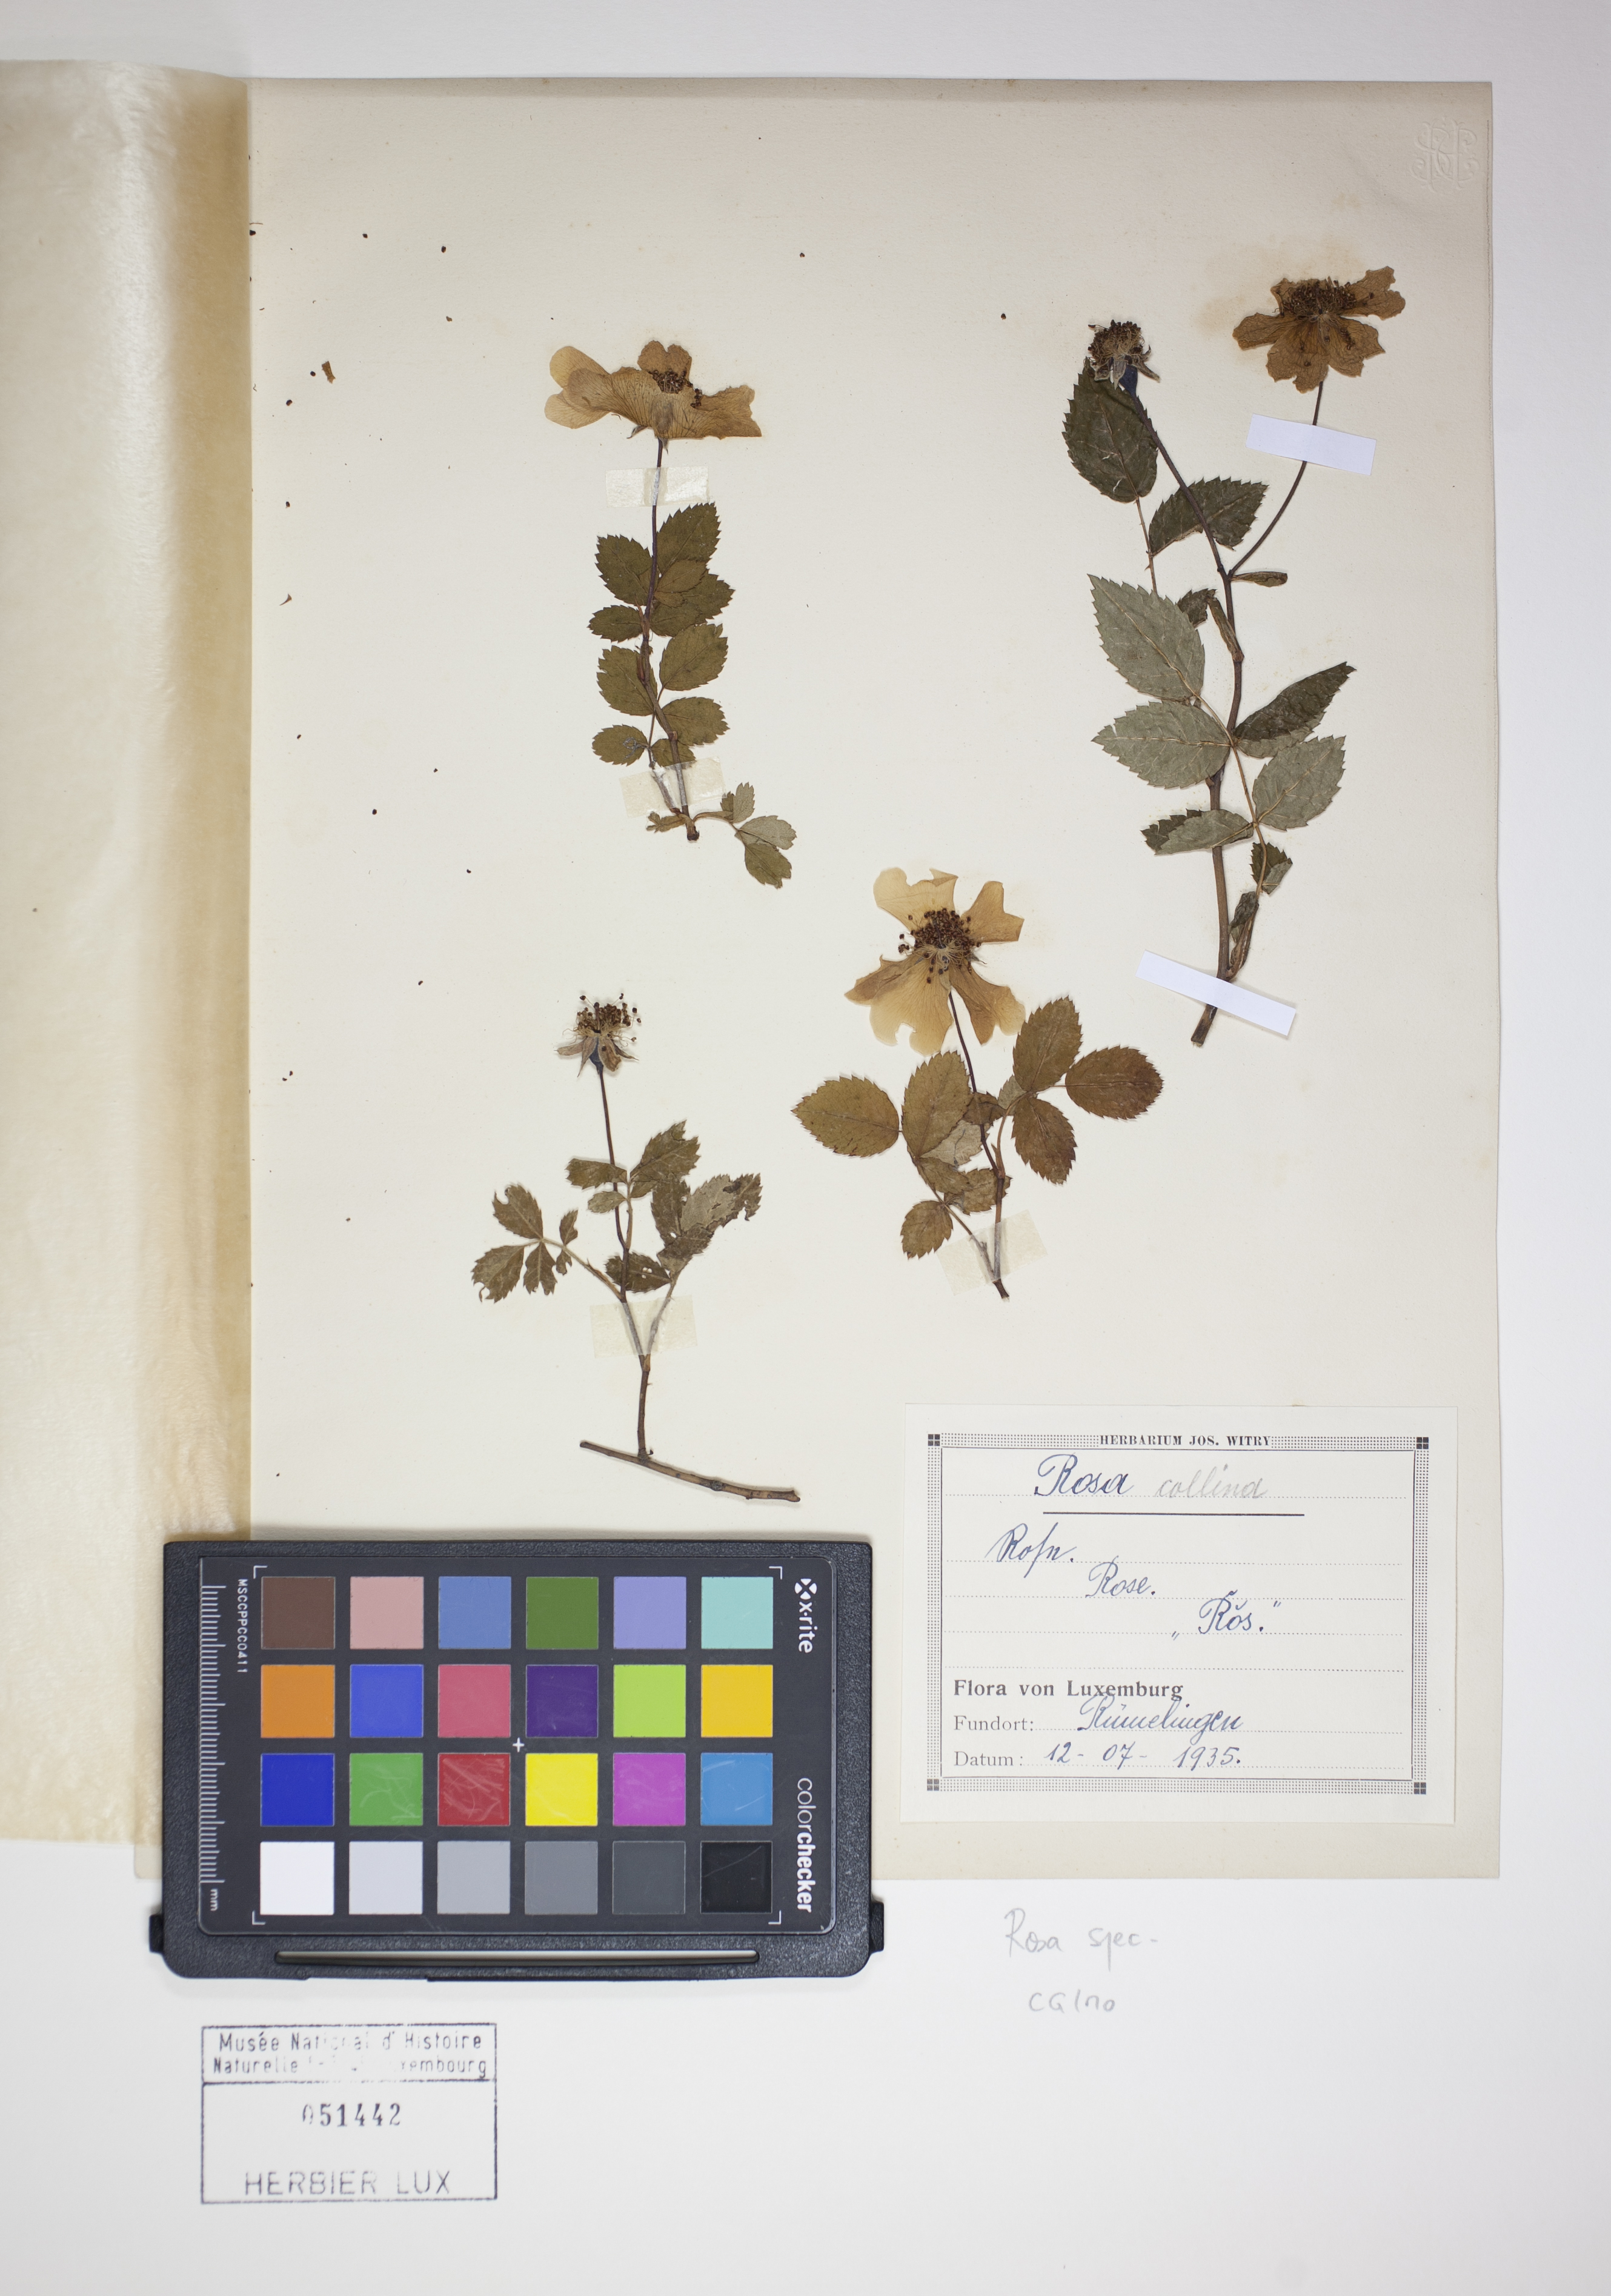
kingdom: Plantae
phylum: Tracheophyta
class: Magnoliopsida
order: Rosales
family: Rosaceae
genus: Rosa
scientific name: Rosa
